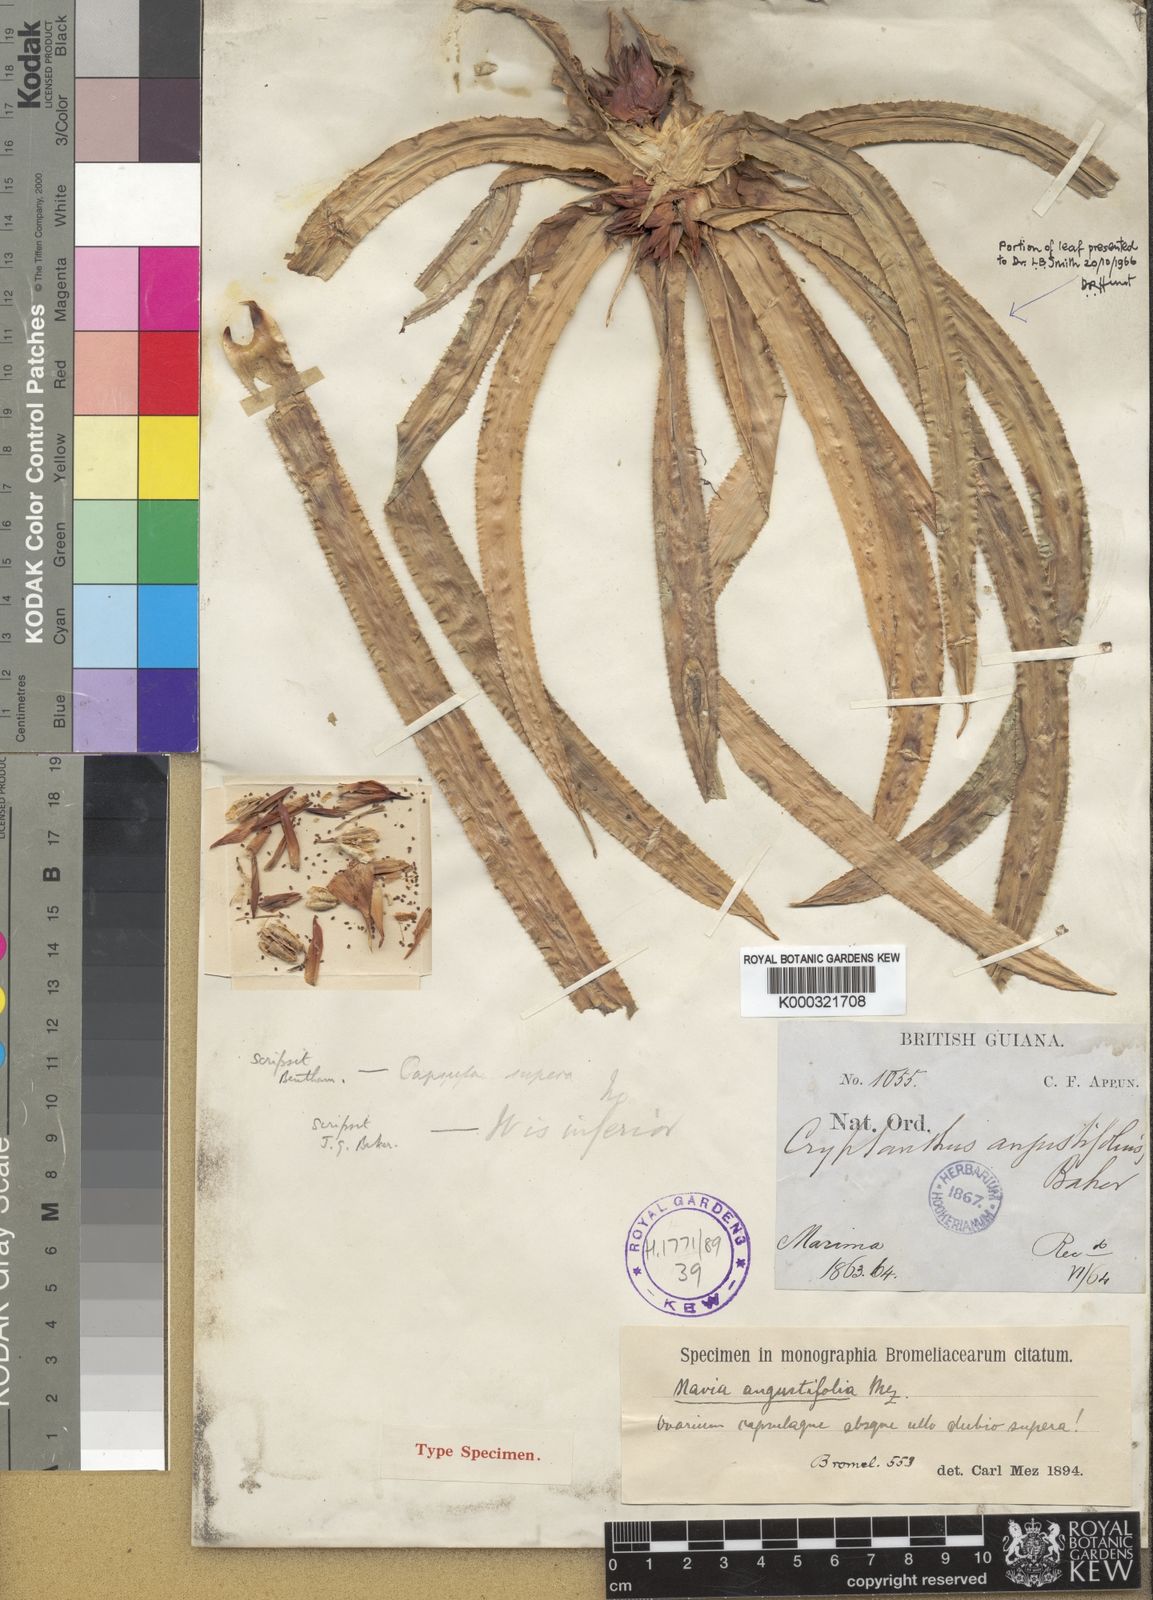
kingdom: Plantae
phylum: Tracheophyta
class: Liliopsida
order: Poales
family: Bromeliaceae
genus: Navia
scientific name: Navia angustifolia
